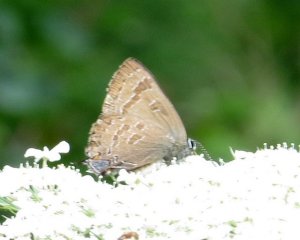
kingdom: Animalia
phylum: Arthropoda
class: Insecta
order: Lepidoptera
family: Lycaenidae
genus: Strymon
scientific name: Strymon caryaevorus
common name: Hickory Hairstreak
